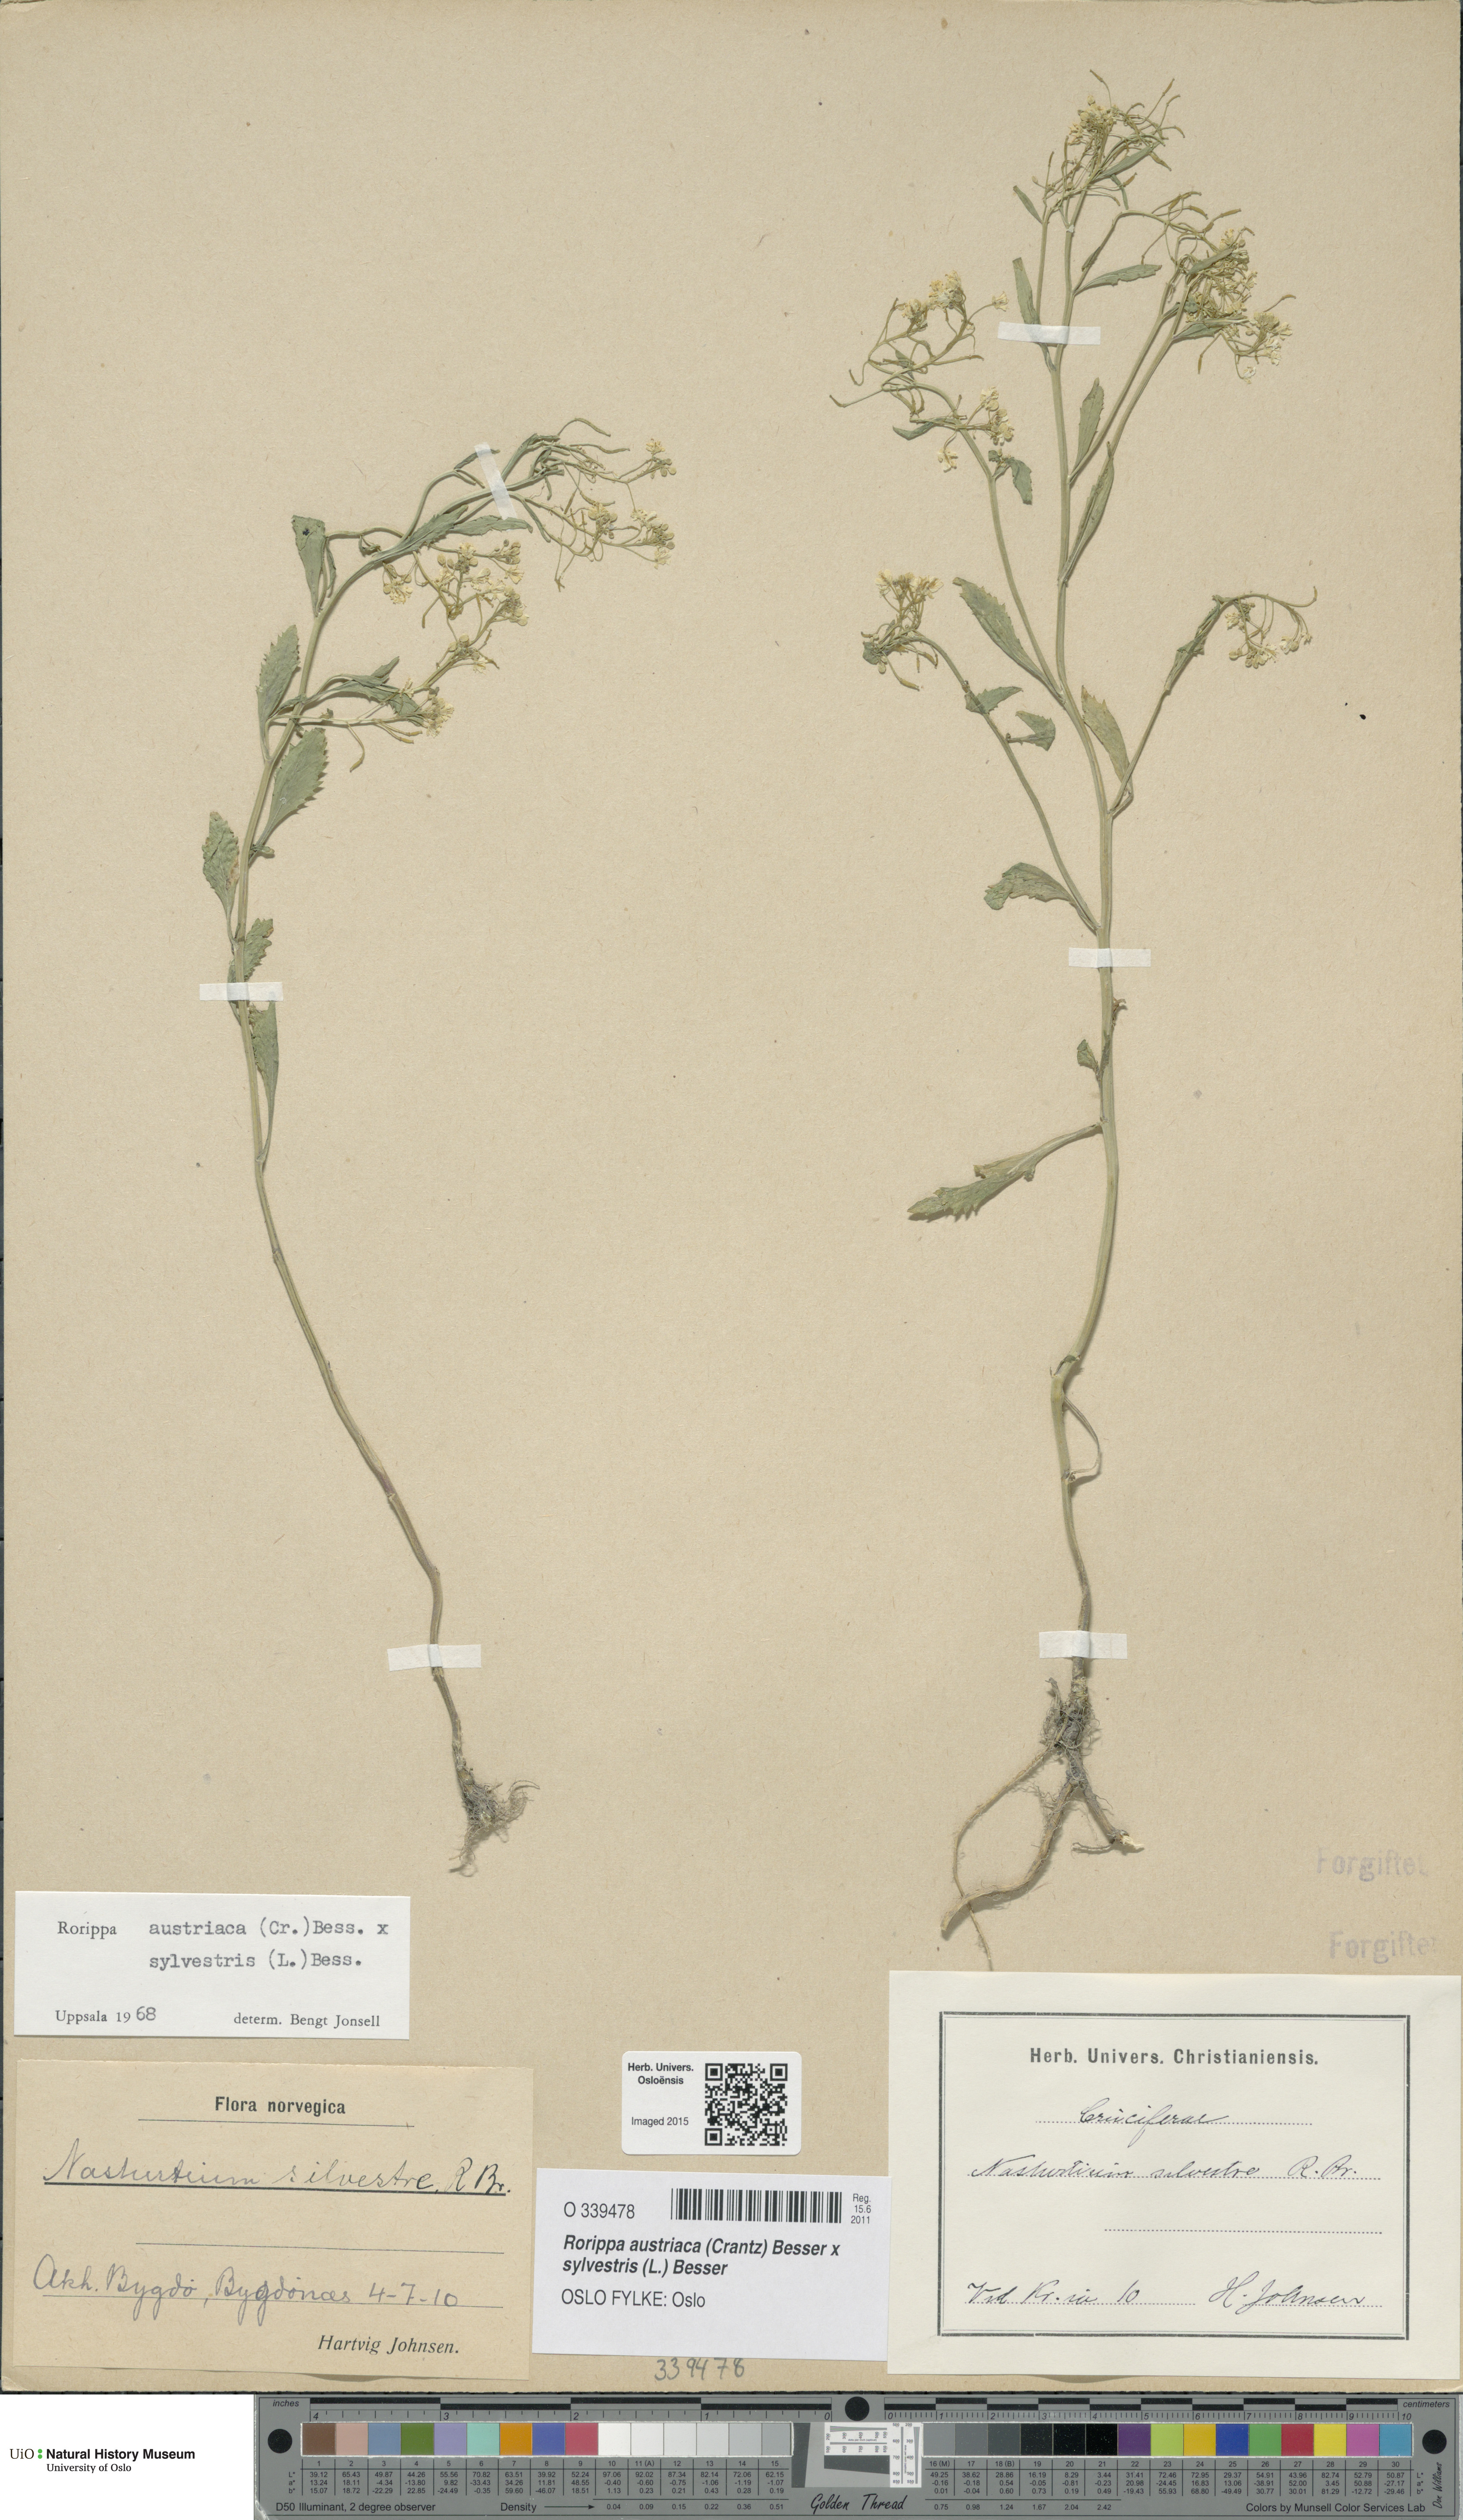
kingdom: Plantae
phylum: Tracheophyta
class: Magnoliopsida
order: Brassicales
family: Brassicaceae
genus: Rorippa
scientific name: Rorippa
